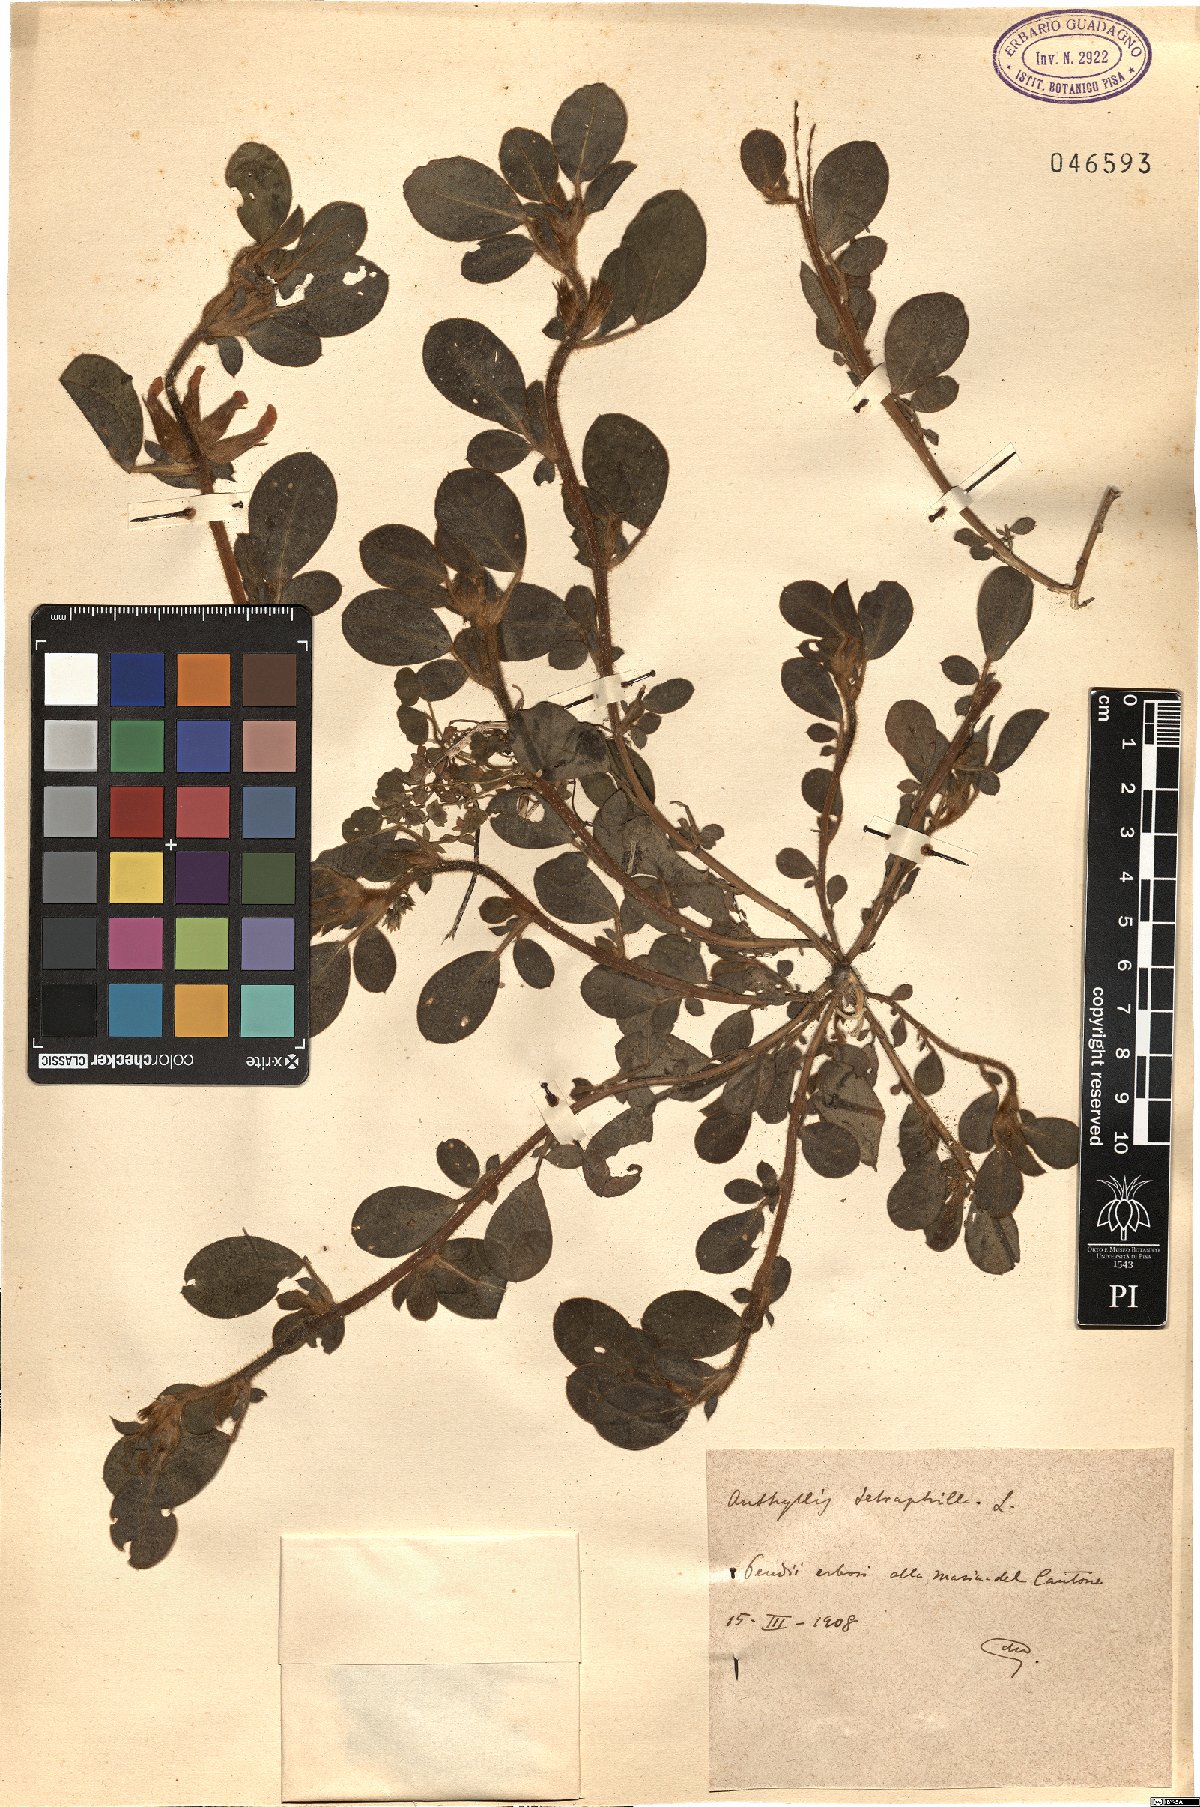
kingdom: Plantae
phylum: Tracheophyta
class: Magnoliopsida
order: Fabales
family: Fabaceae
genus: Tripodion
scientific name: Tripodion tetraphyllum
